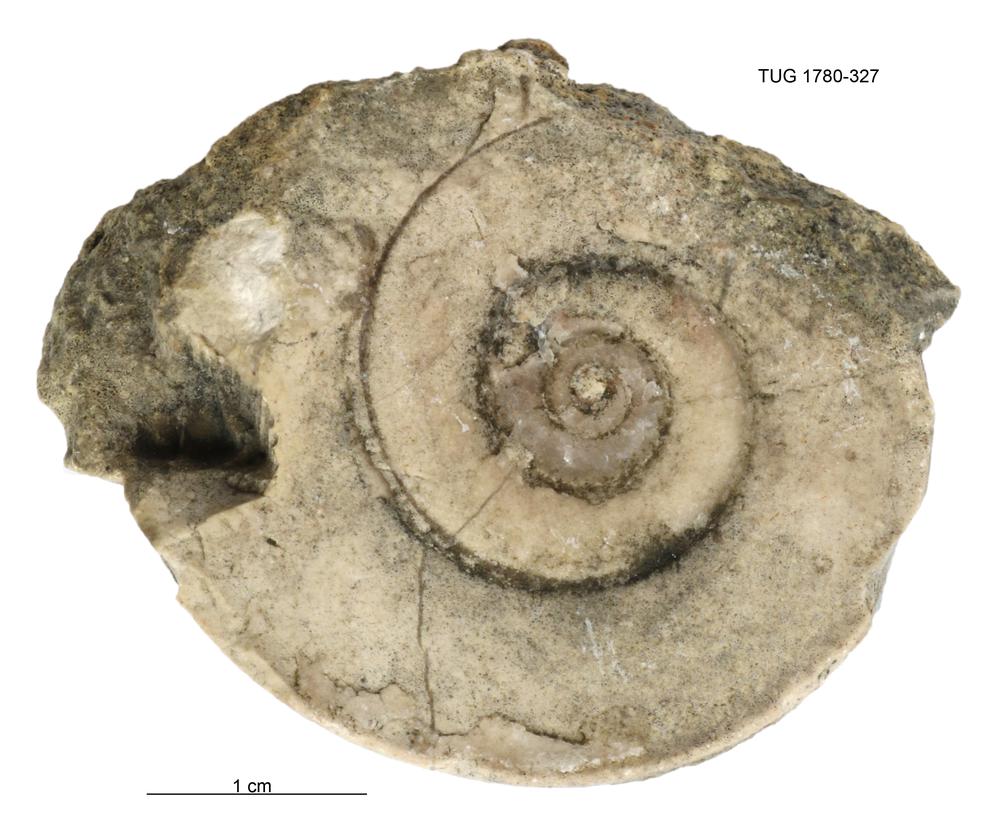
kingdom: Animalia
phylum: Mollusca
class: Gastropoda
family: Lesueurillidae
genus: Lesueurilla
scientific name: Lesueurilla
